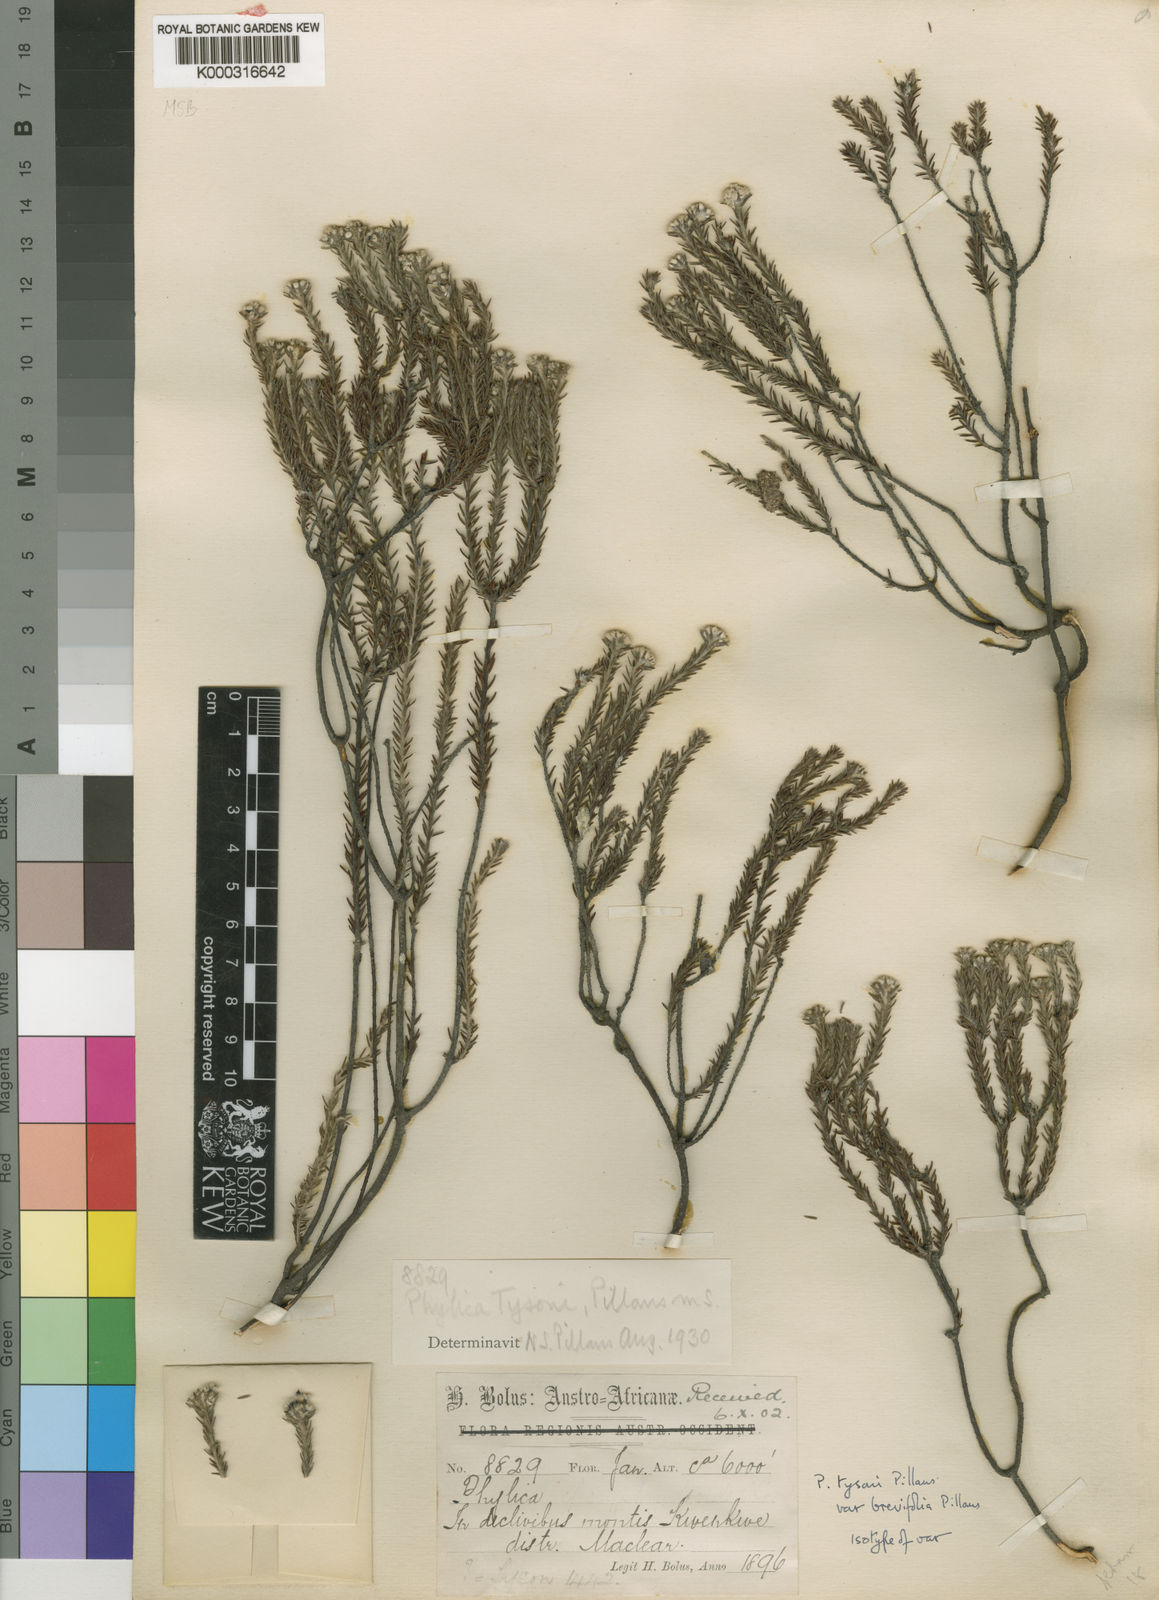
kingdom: Plantae
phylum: Tracheophyta
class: Magnoliopsida
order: Rosales
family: Rhamnaceae
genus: Phylica
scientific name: Phylica tysonii
